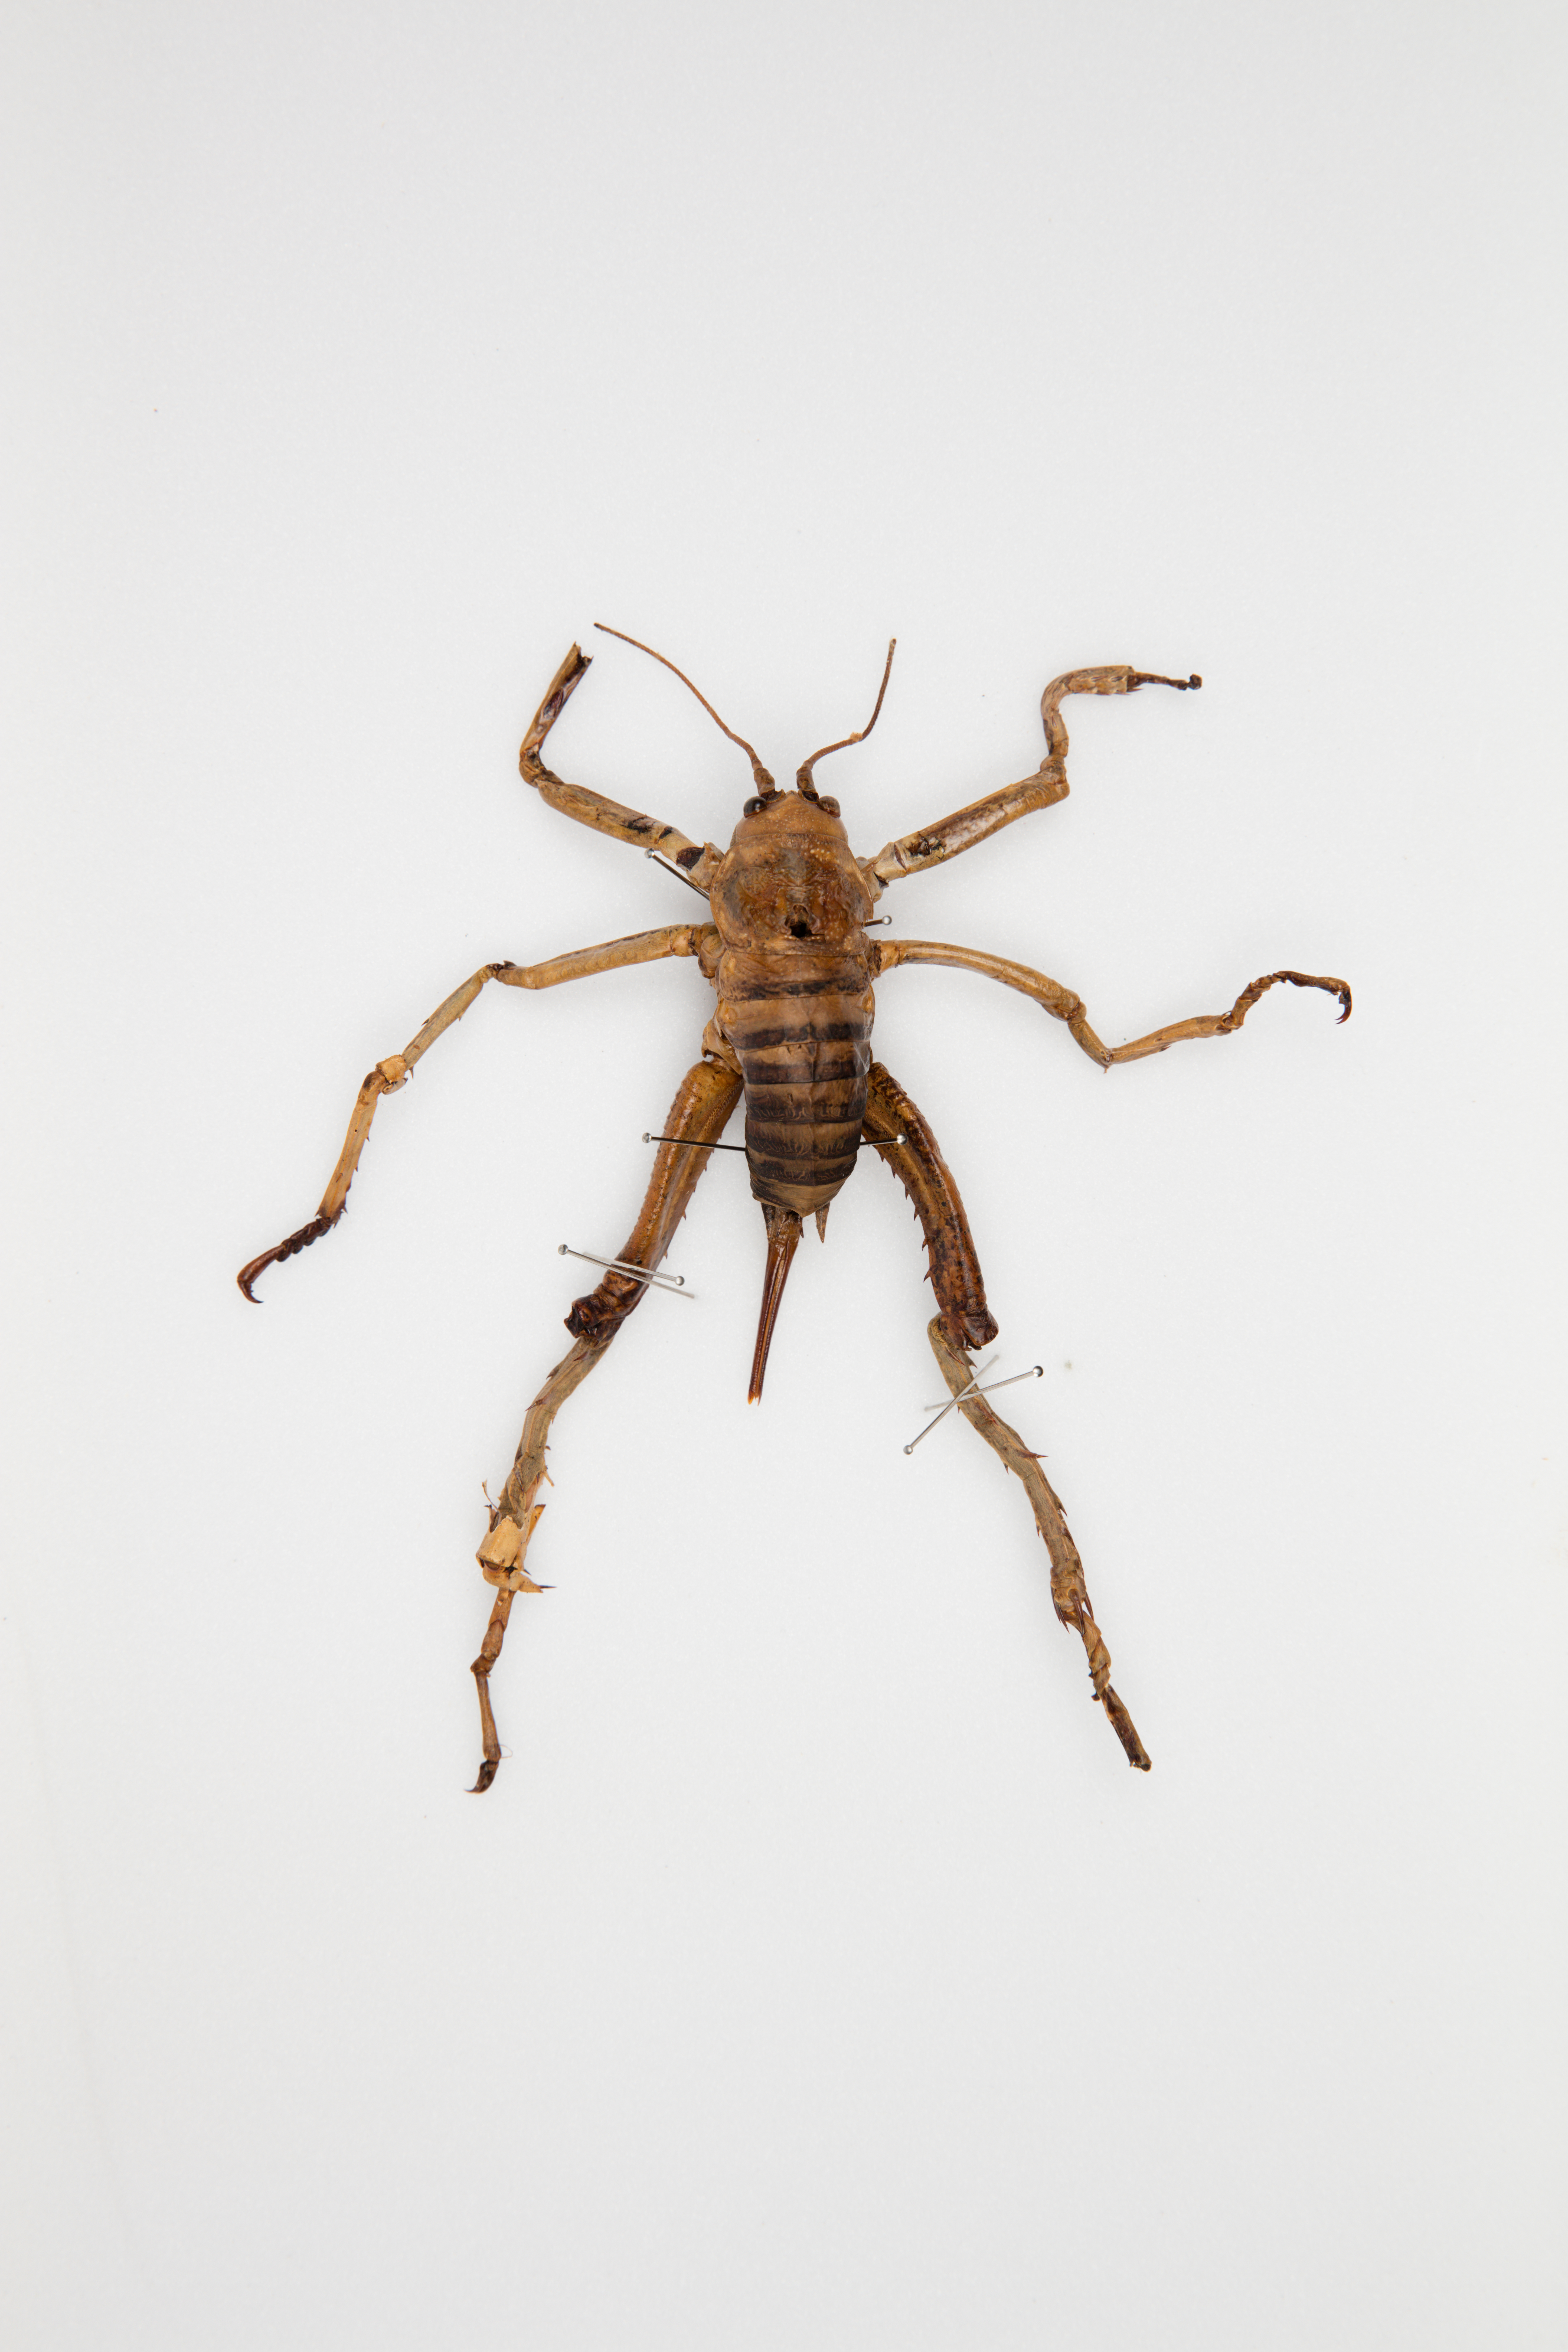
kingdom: Animalia
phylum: Arthropoda
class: Insecta
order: Orthoptera
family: Anostostomatidae
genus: Deinacrida
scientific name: Deinacrida heteracantha
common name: Wetapunga
